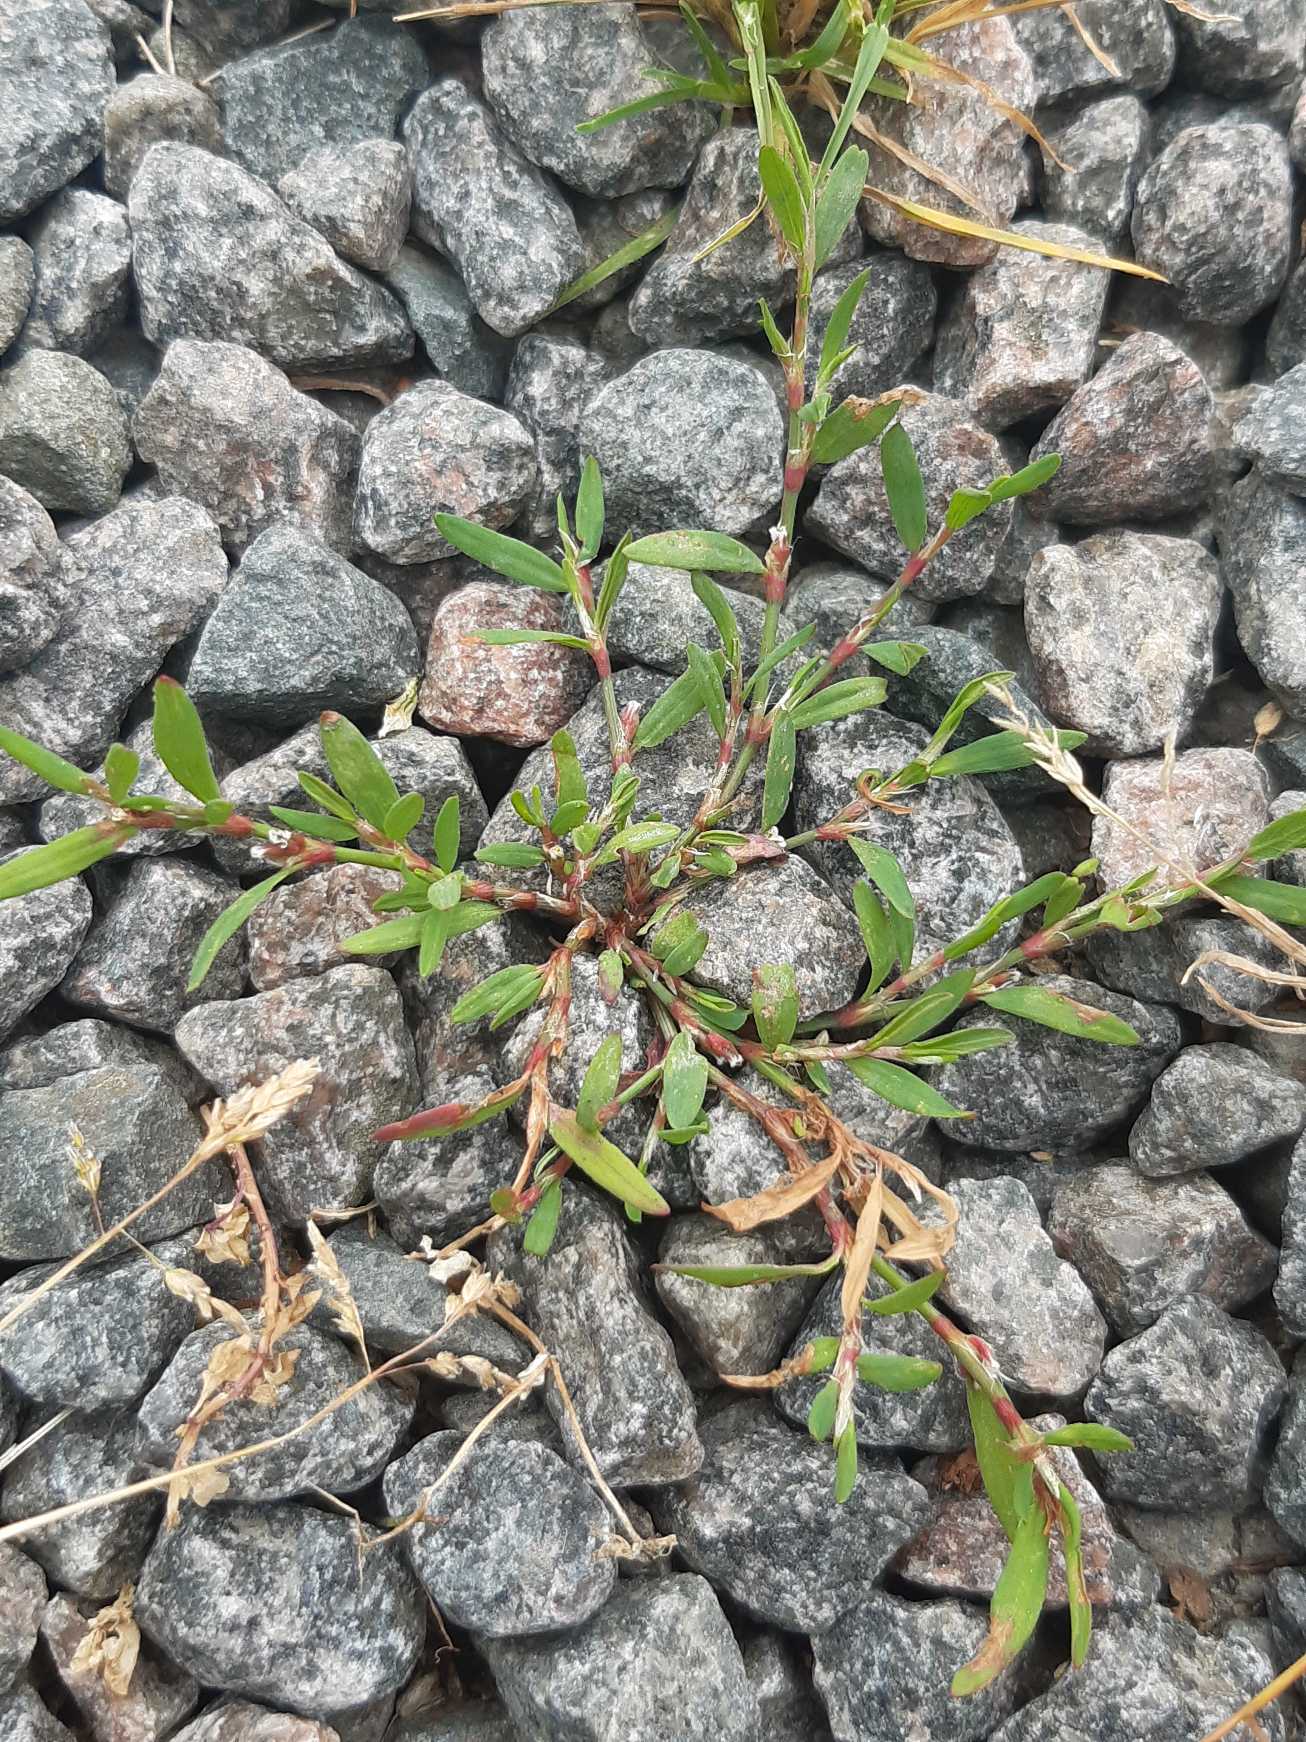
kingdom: Plantae
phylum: Tracheophyta
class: Magnoliopsida
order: Caryophyllales
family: Polygonaceae
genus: Polygonum
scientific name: Polygonum aviculare
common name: Vej-pileurt
